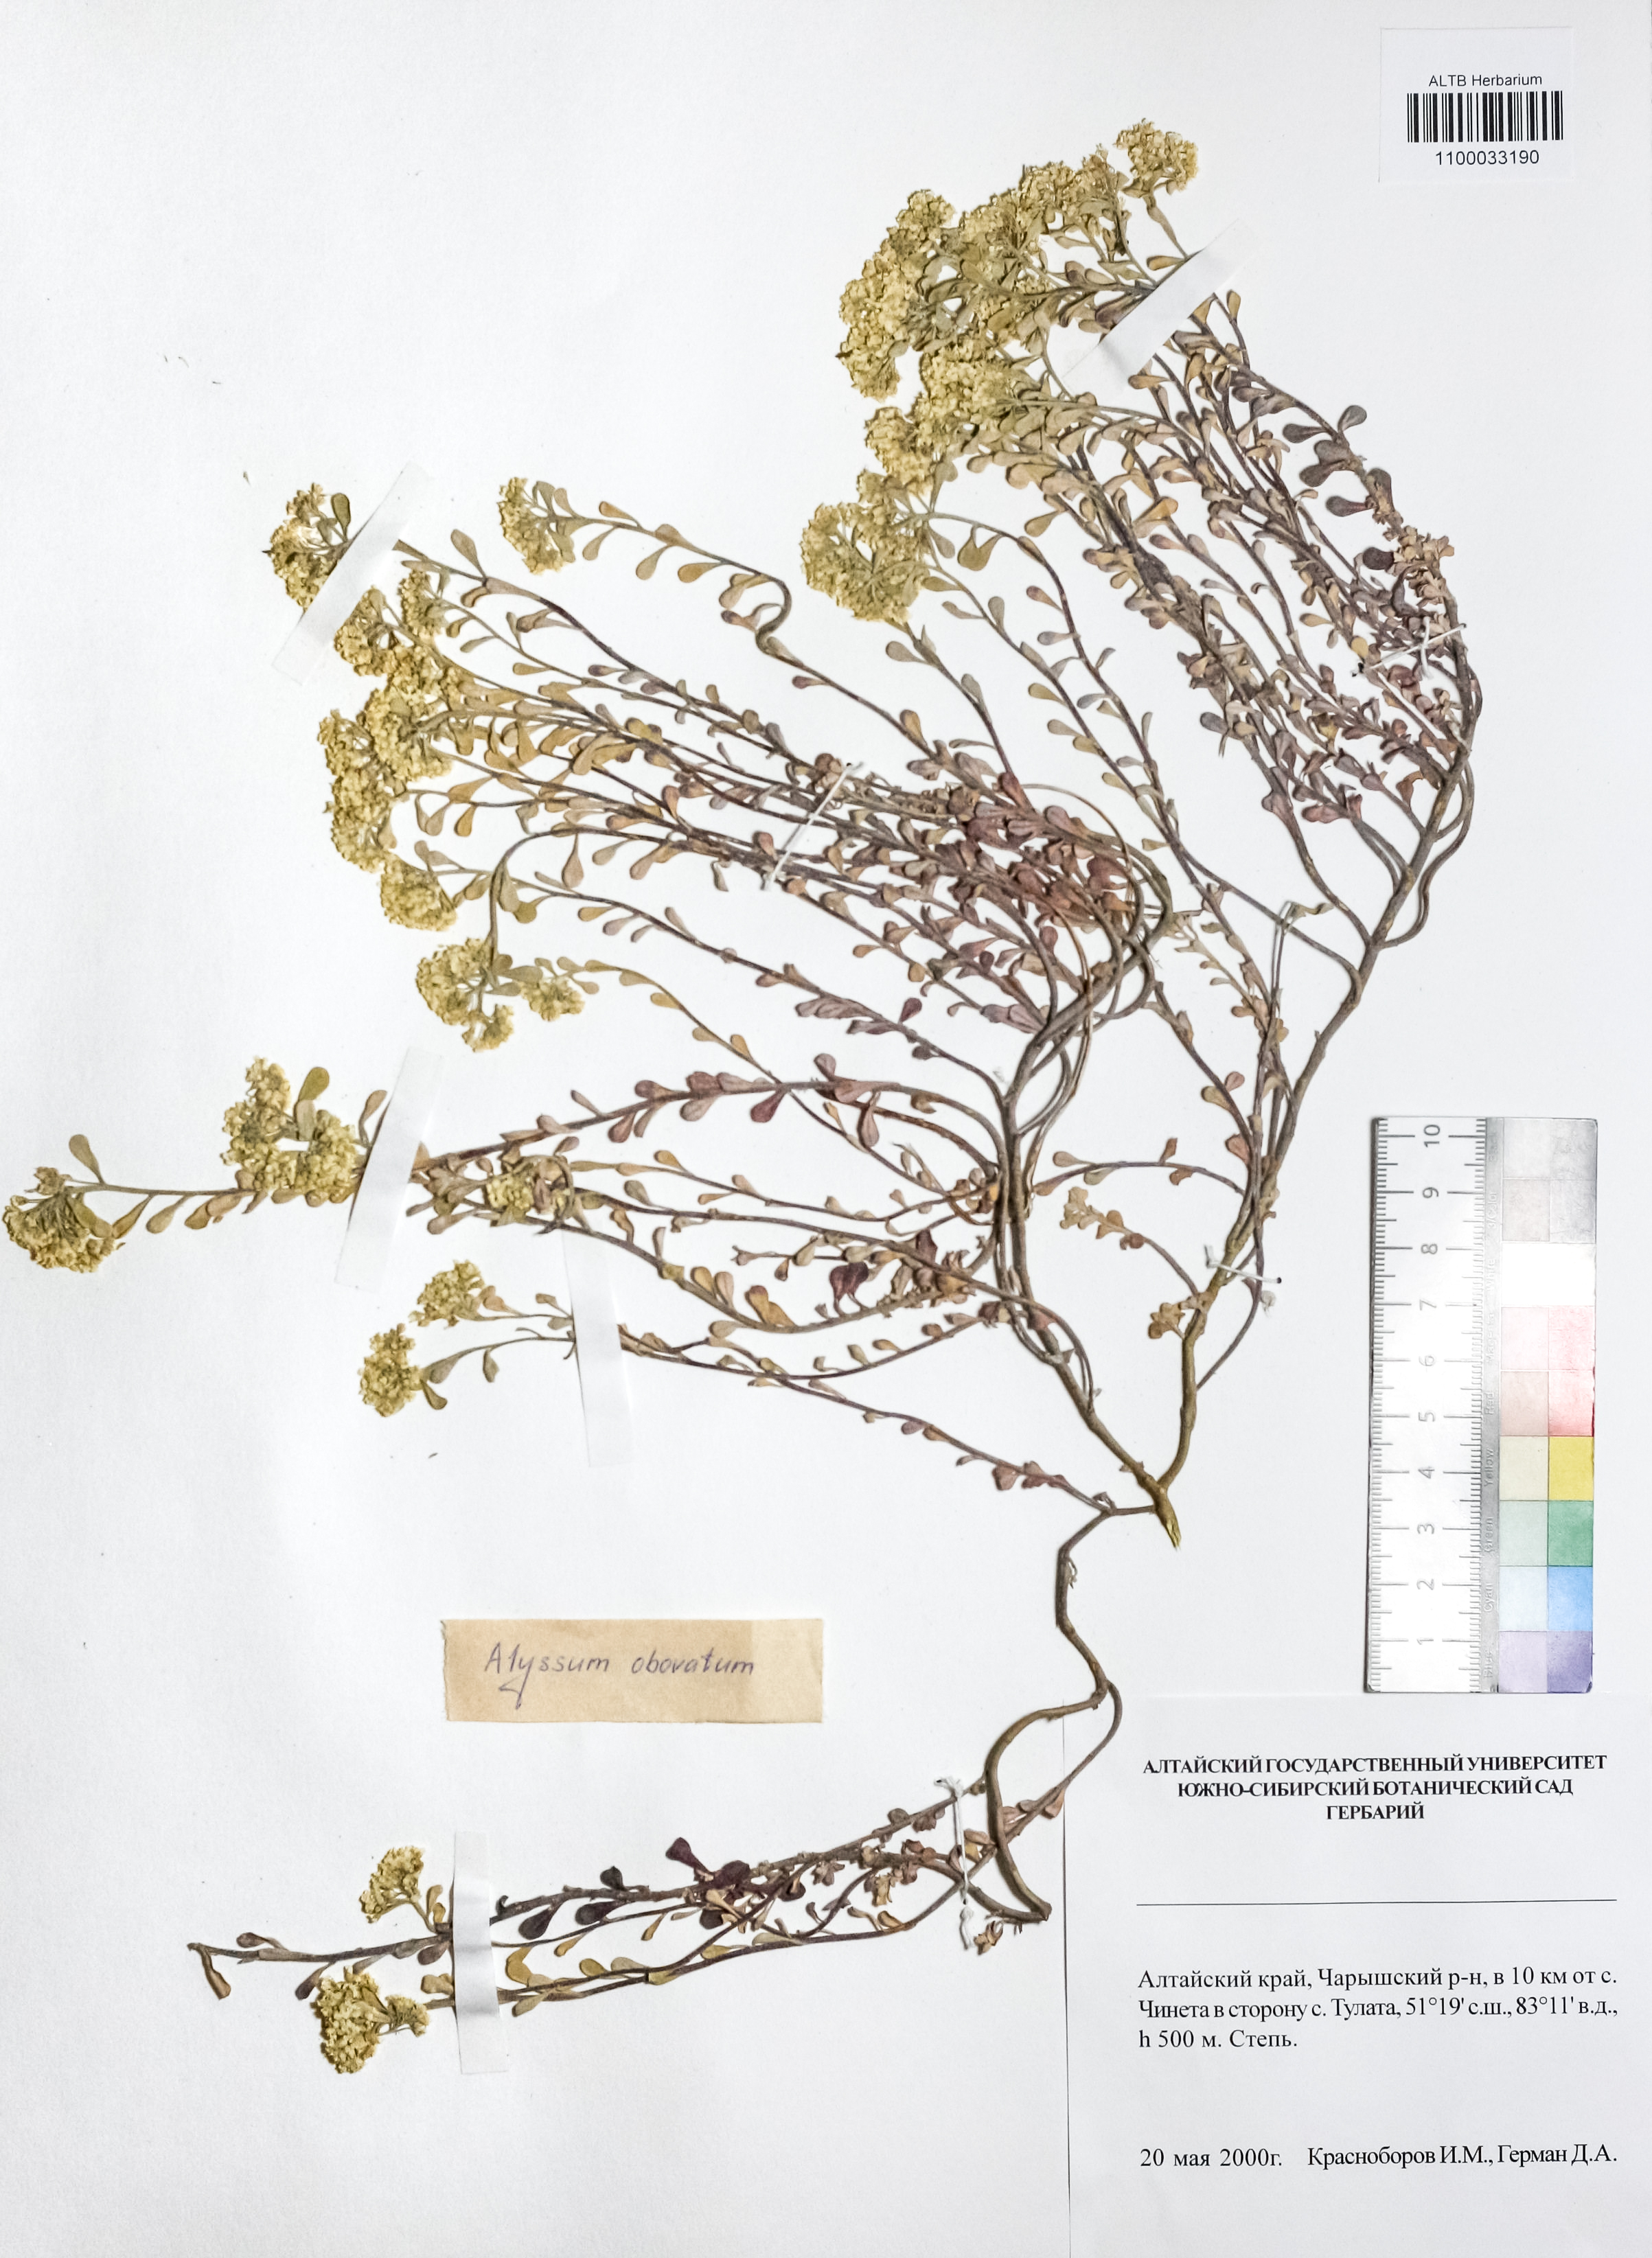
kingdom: Plantae
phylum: Tracheophyta
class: Magnoliopsida
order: Brassicales
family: Brassicaceae
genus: Odontarrhena
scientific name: Odontarrhena obovata
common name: American alyssum
